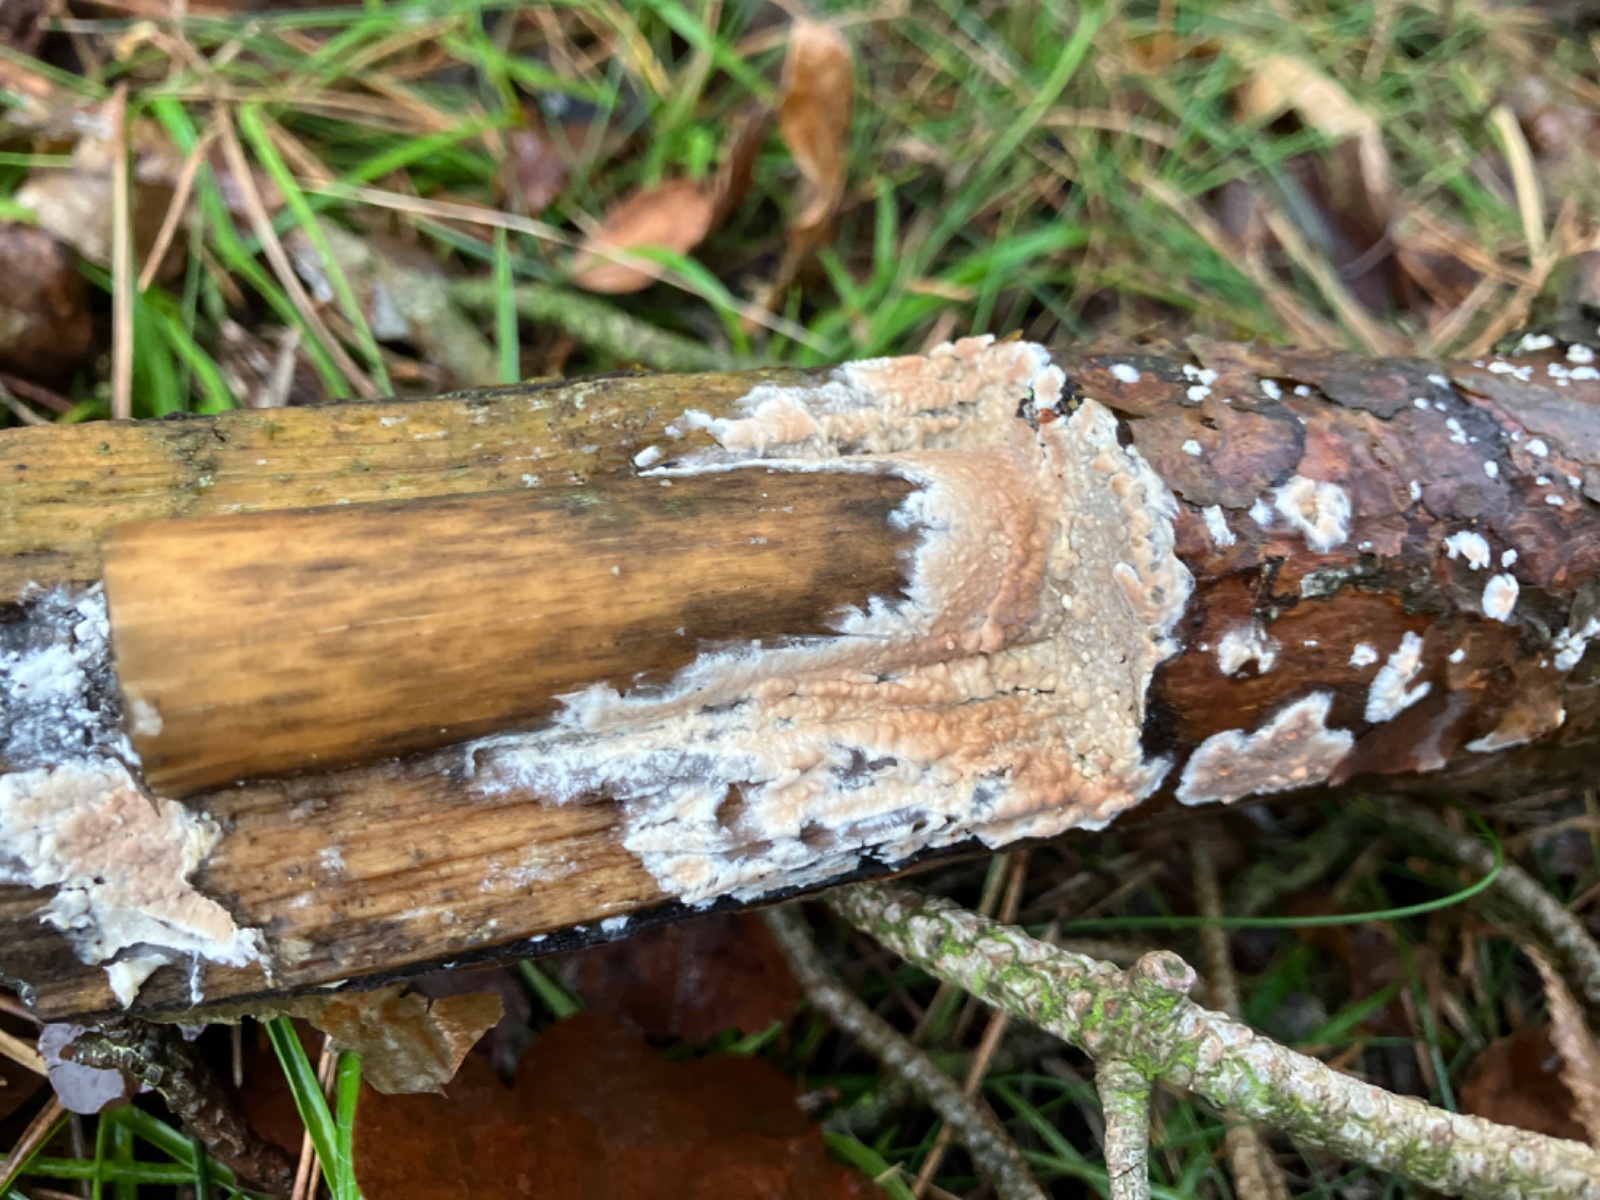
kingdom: Fungi
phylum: Basidiomycota
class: Agaricomycetes
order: Agaricales
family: Physalacriaceae
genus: Cylindrobasidium
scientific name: Cylindrobasidium evolvens
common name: sprækkehinde
